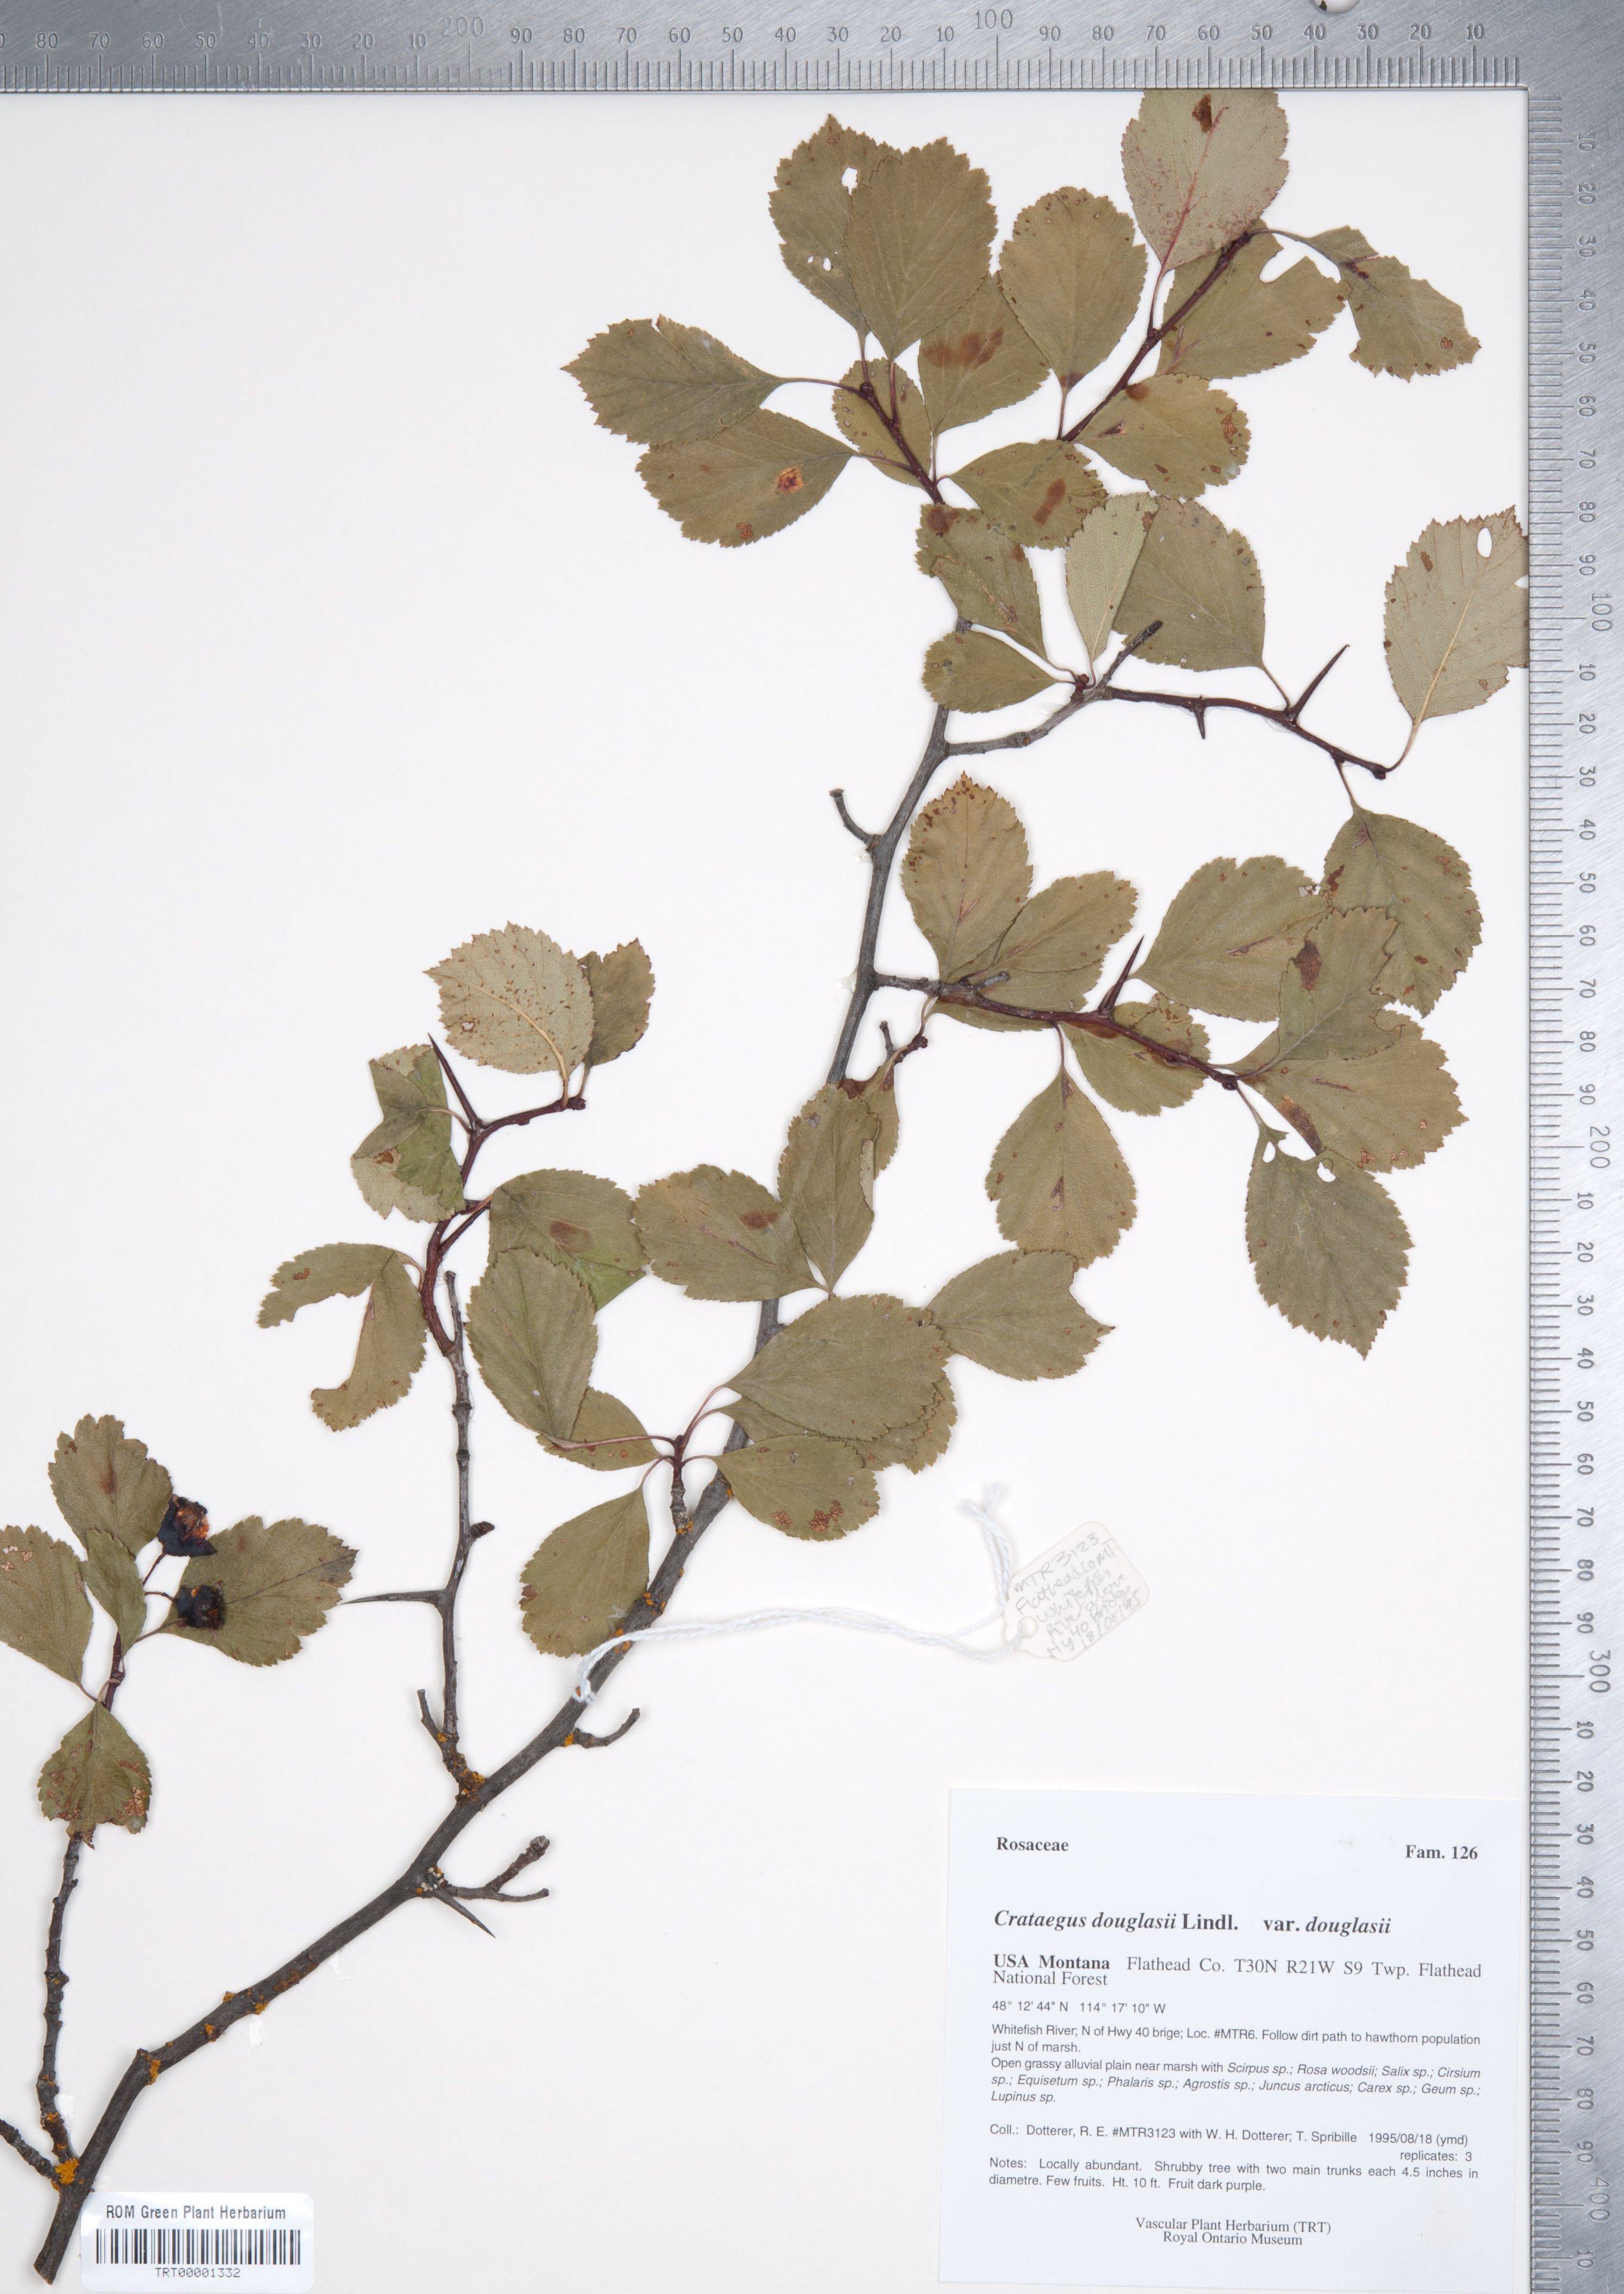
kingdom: Plantae
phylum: Tracheophyta
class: Magnoliopsida
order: Rosales
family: Rosaceae
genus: Crataegus
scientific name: Crataegus douglasii
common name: Black hawthorn
